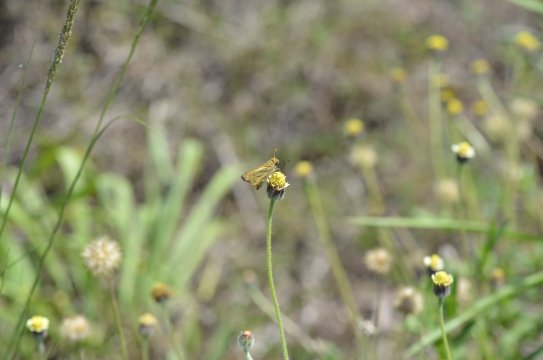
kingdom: Animalia
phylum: Arthropoda
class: Insecta
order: Lepidoptera
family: Hesperiidae
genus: Hylephila
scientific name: Hylephila phyleus
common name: Fiery Skipper
